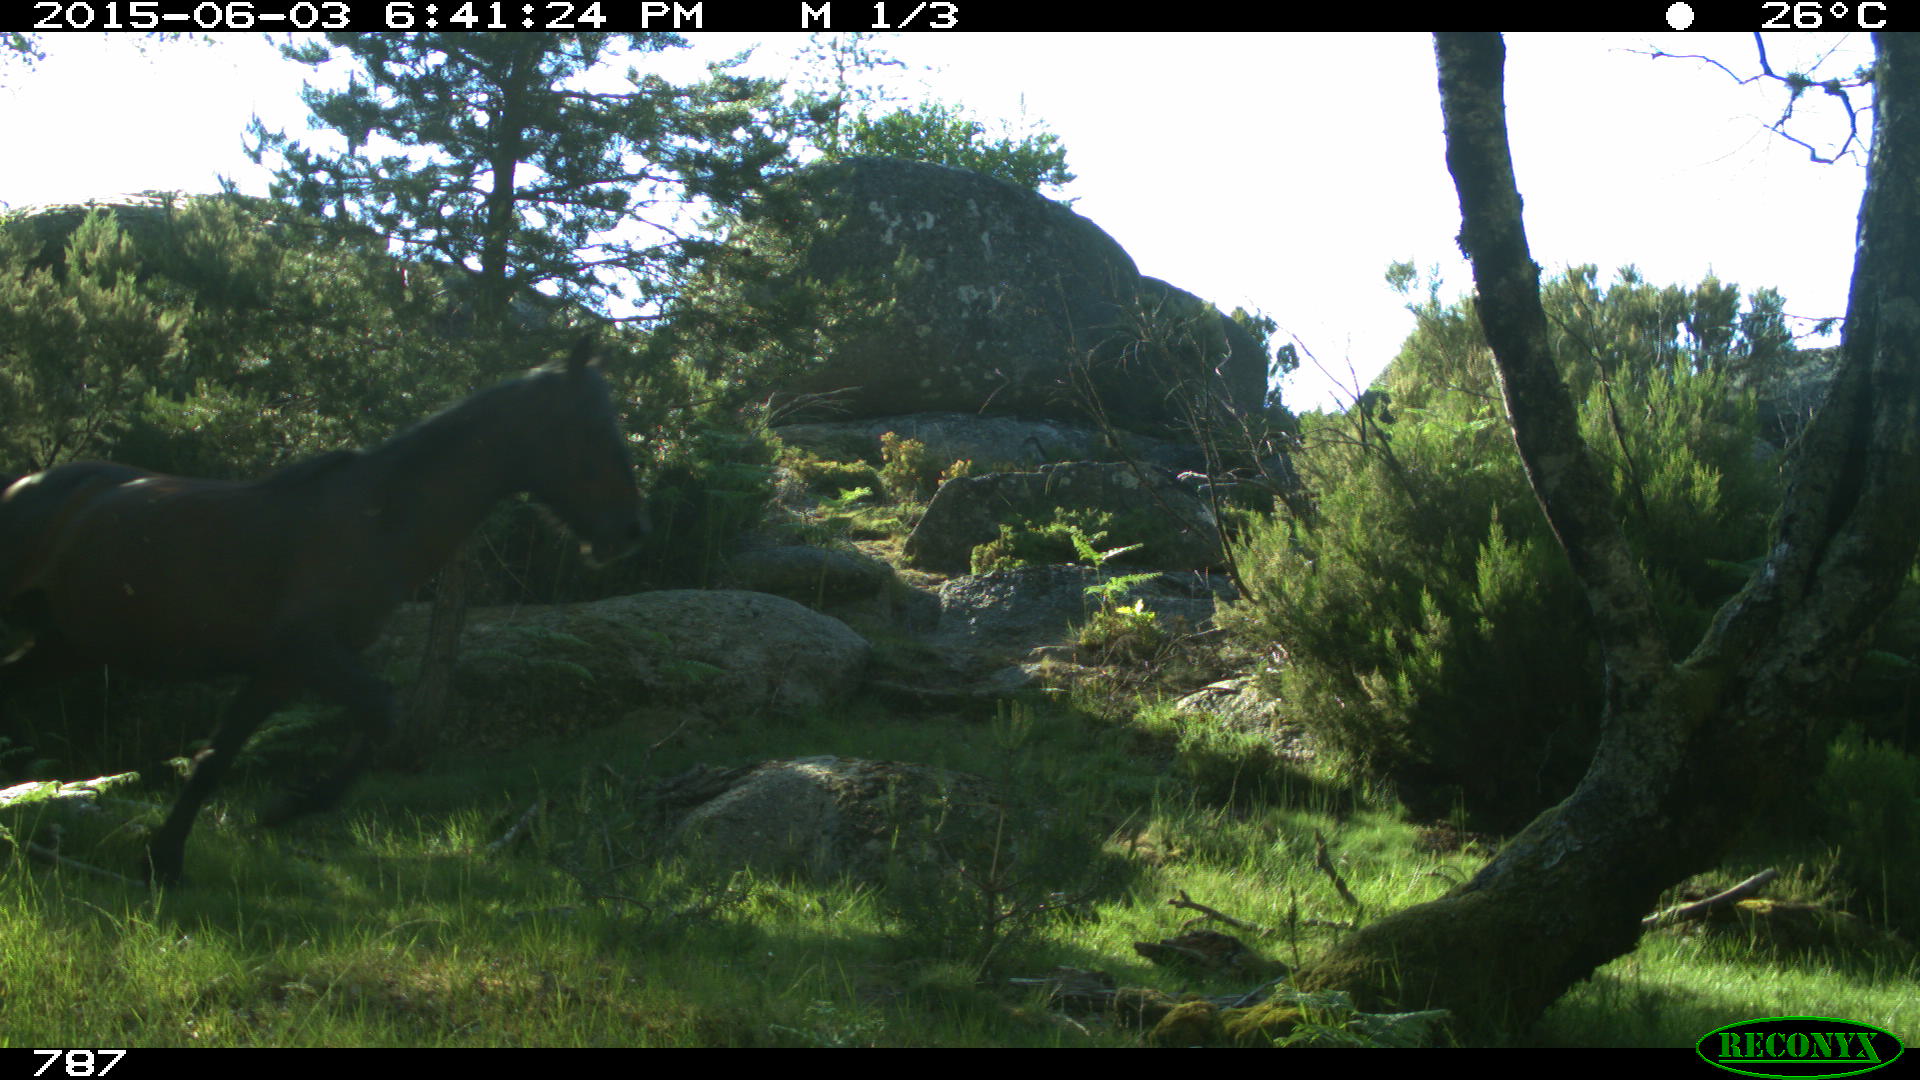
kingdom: Animalia
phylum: Chordata
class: Mammalia
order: Perissodactyla
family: Equidae
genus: Equus
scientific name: Equus caballus
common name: Horse
